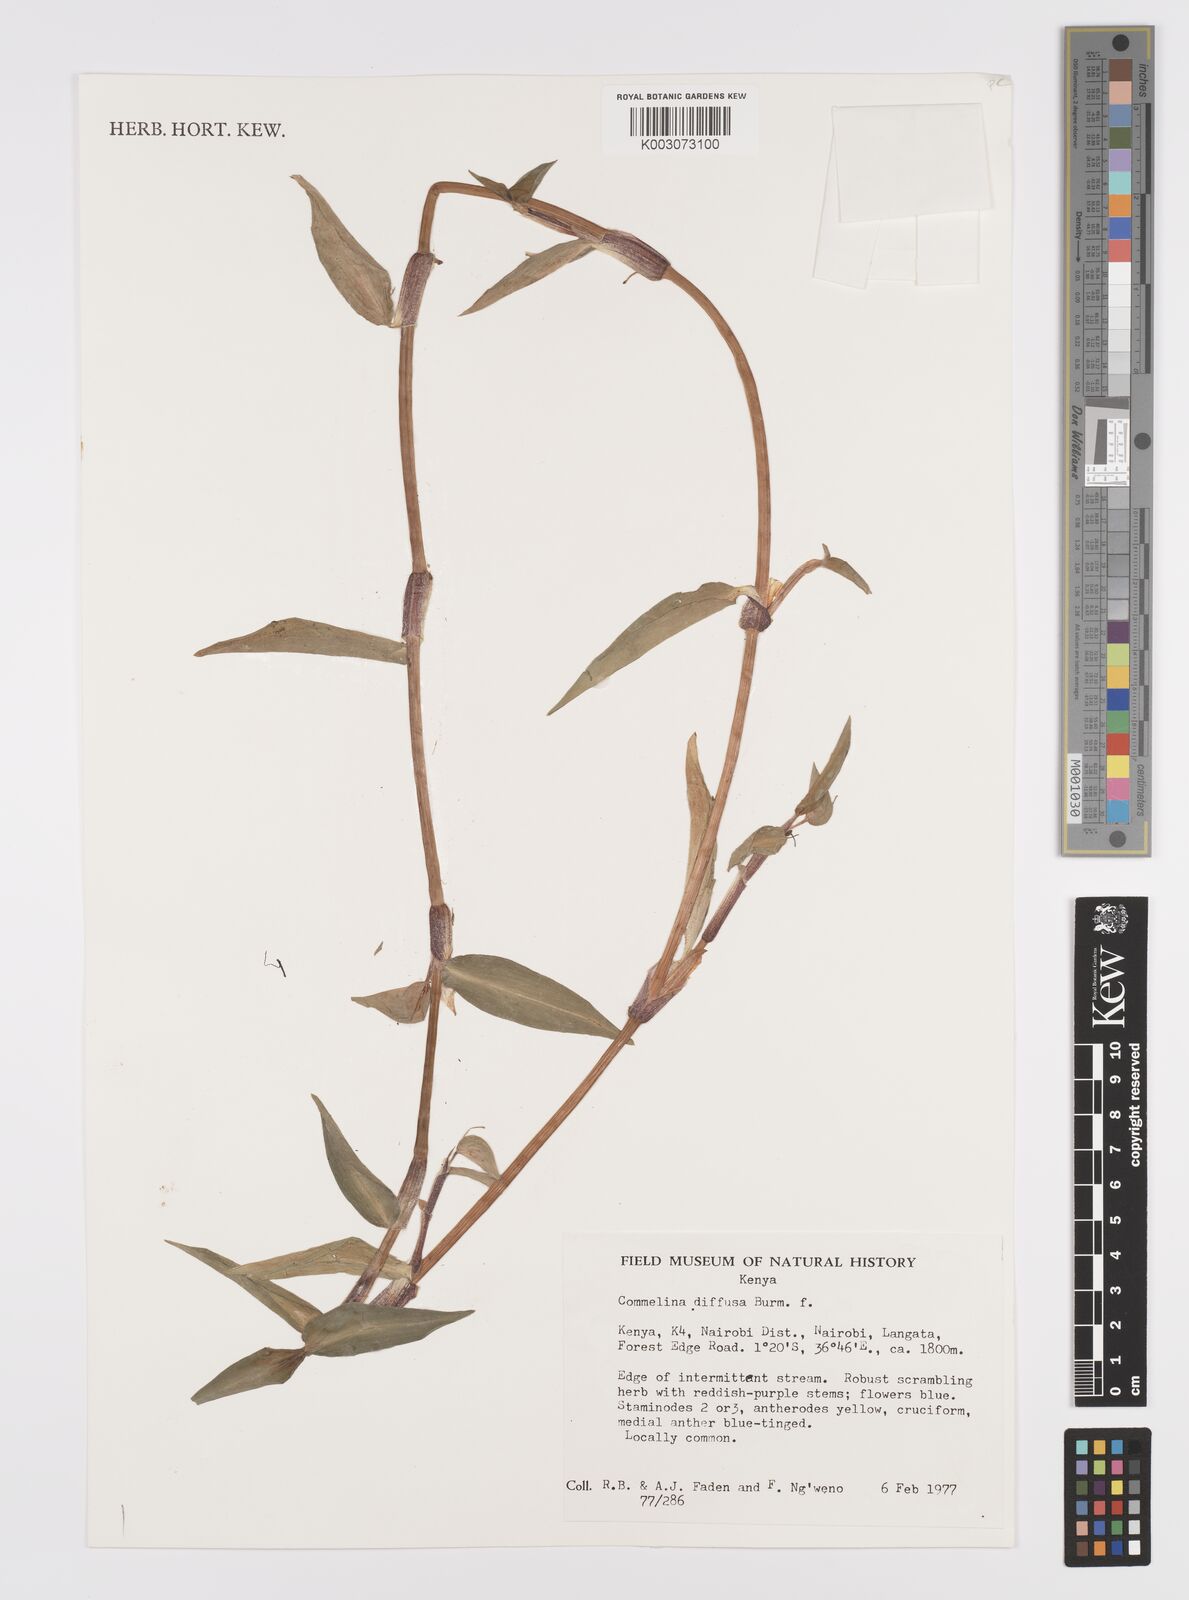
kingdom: Plantae
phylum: Tracheophyta
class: Liliopsida
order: Commelinales
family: Commelinaceae
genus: Commelina
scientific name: Commelina diffusa
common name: Climbing dayflower
